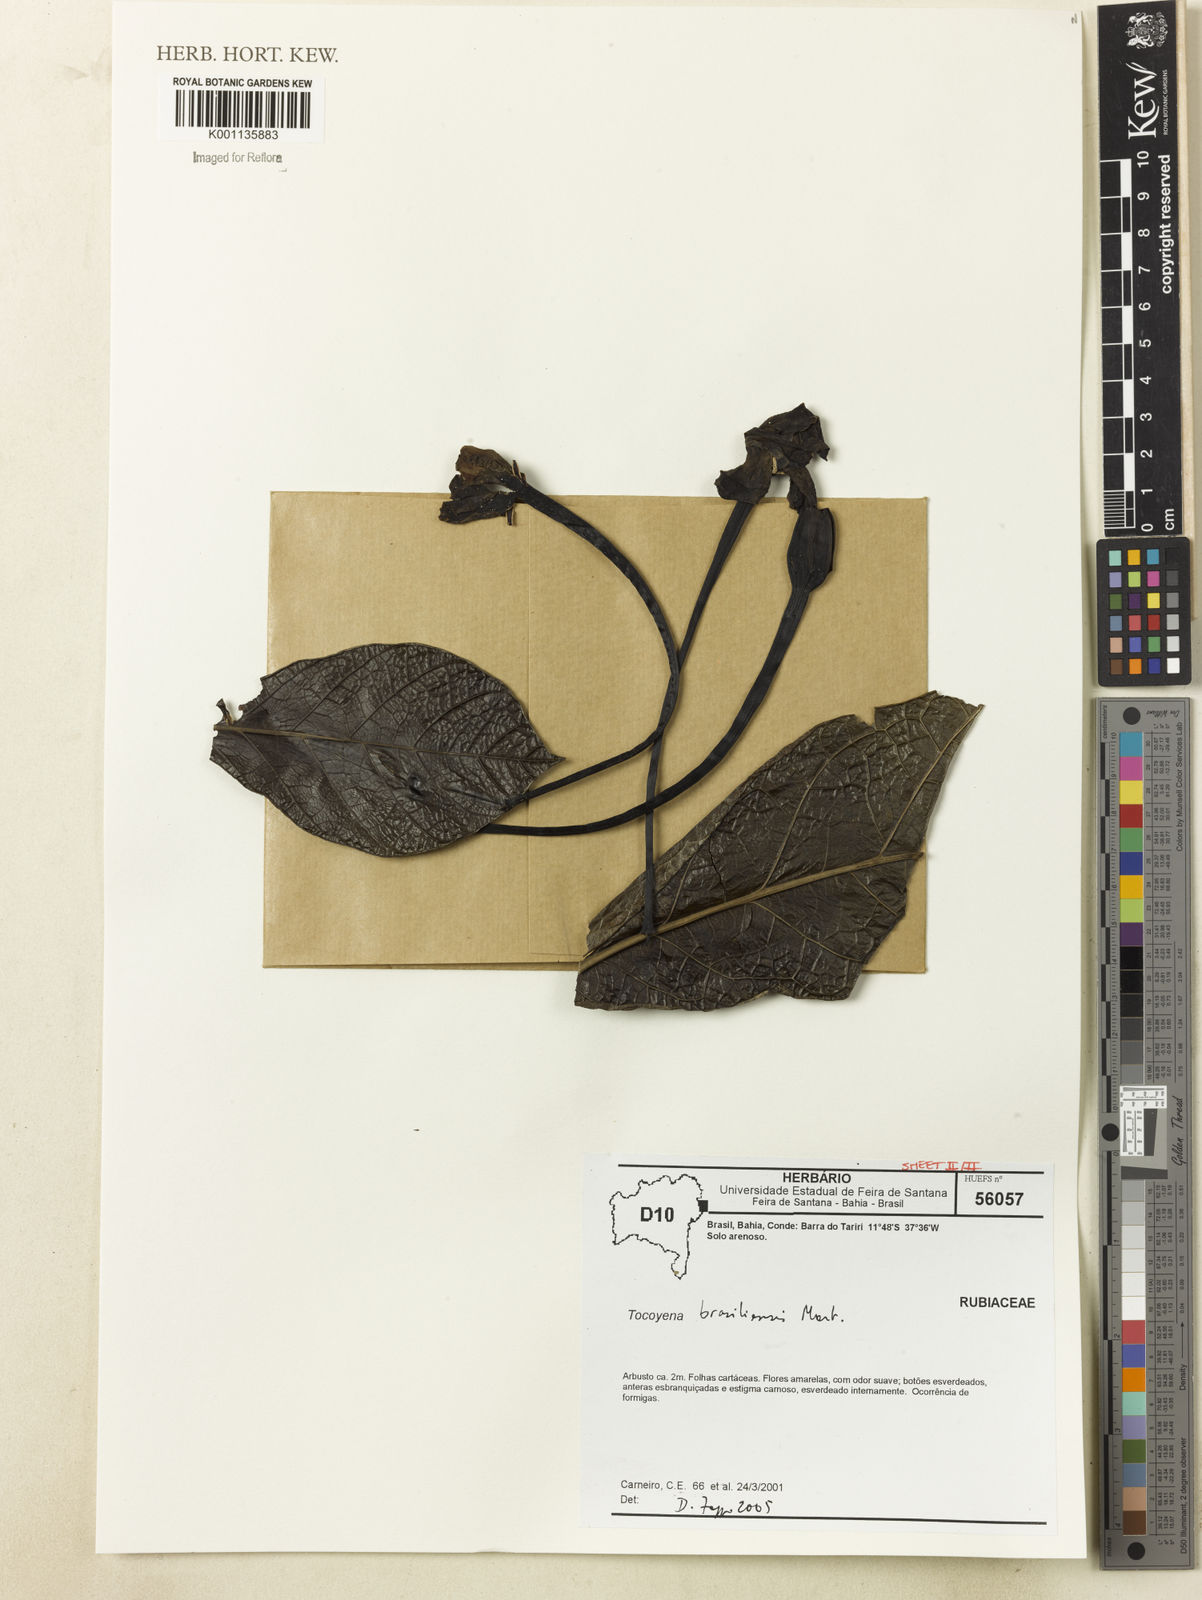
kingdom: Plantae
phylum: Tracheophyta
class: Magnoliopsida
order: Gentianales
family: Rubiaceae
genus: Tocoyena
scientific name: Tocoyena sprucei
